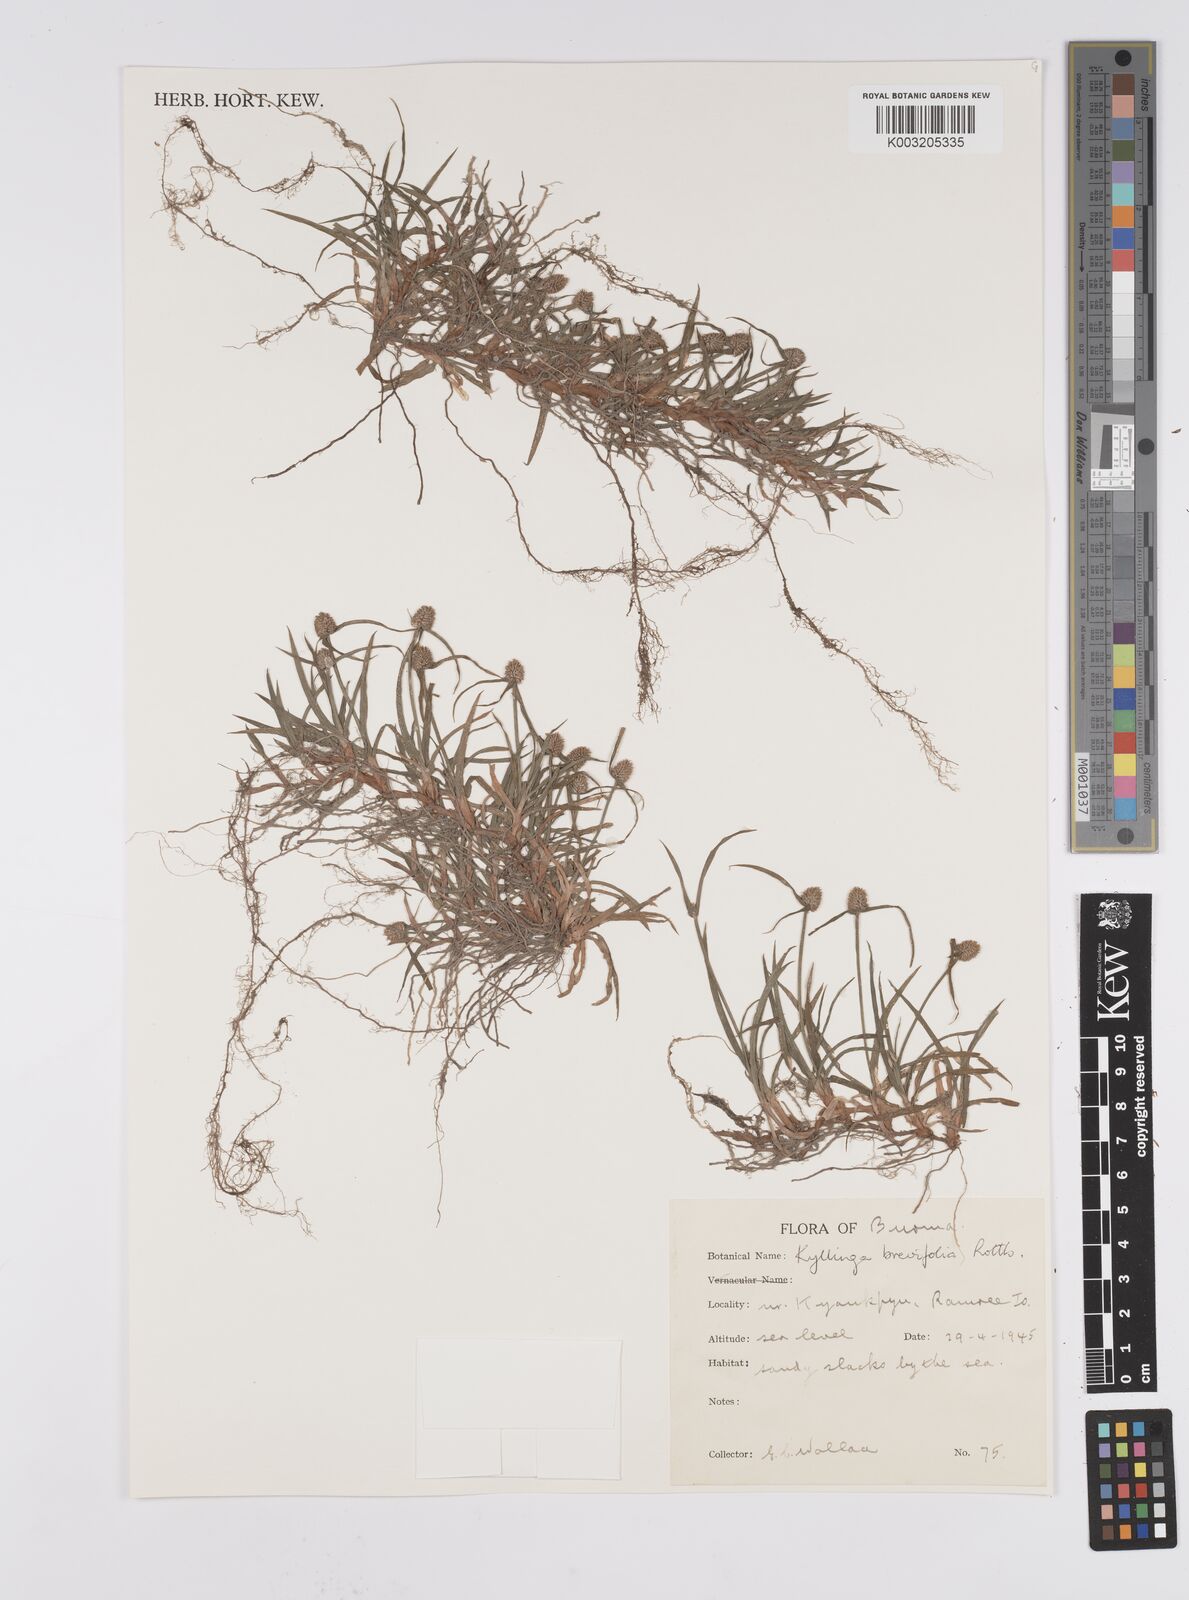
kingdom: Plantae
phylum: Tracheophyta
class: Liliopsida
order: Poales
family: Cyperaceae
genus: Cyperus
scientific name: Cyperus brevifolius
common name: Globe kyllinga
